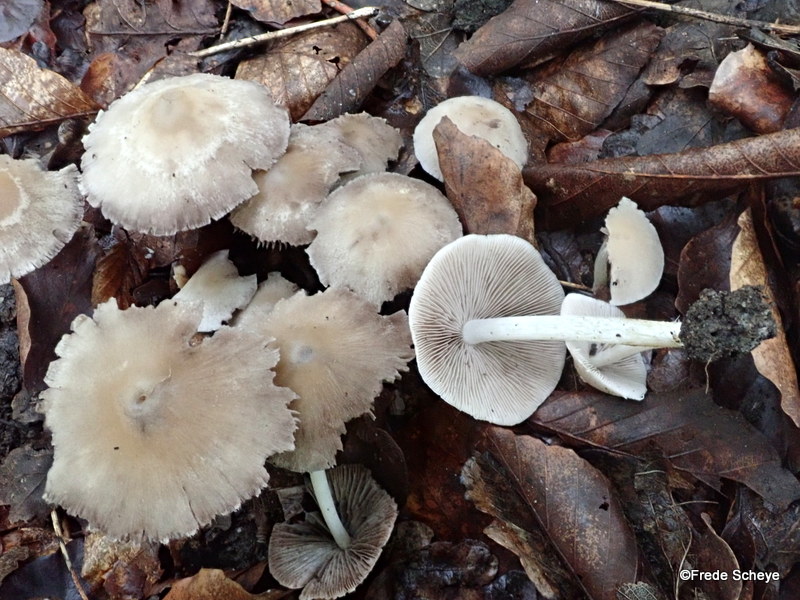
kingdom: Fungi
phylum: Basidiomycota
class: Agaricomycetes
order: Agaricales
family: Psathyrellaceae
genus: Candolleomyces
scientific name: Candolleomyces candolleanus
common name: Candolles mørkhat
